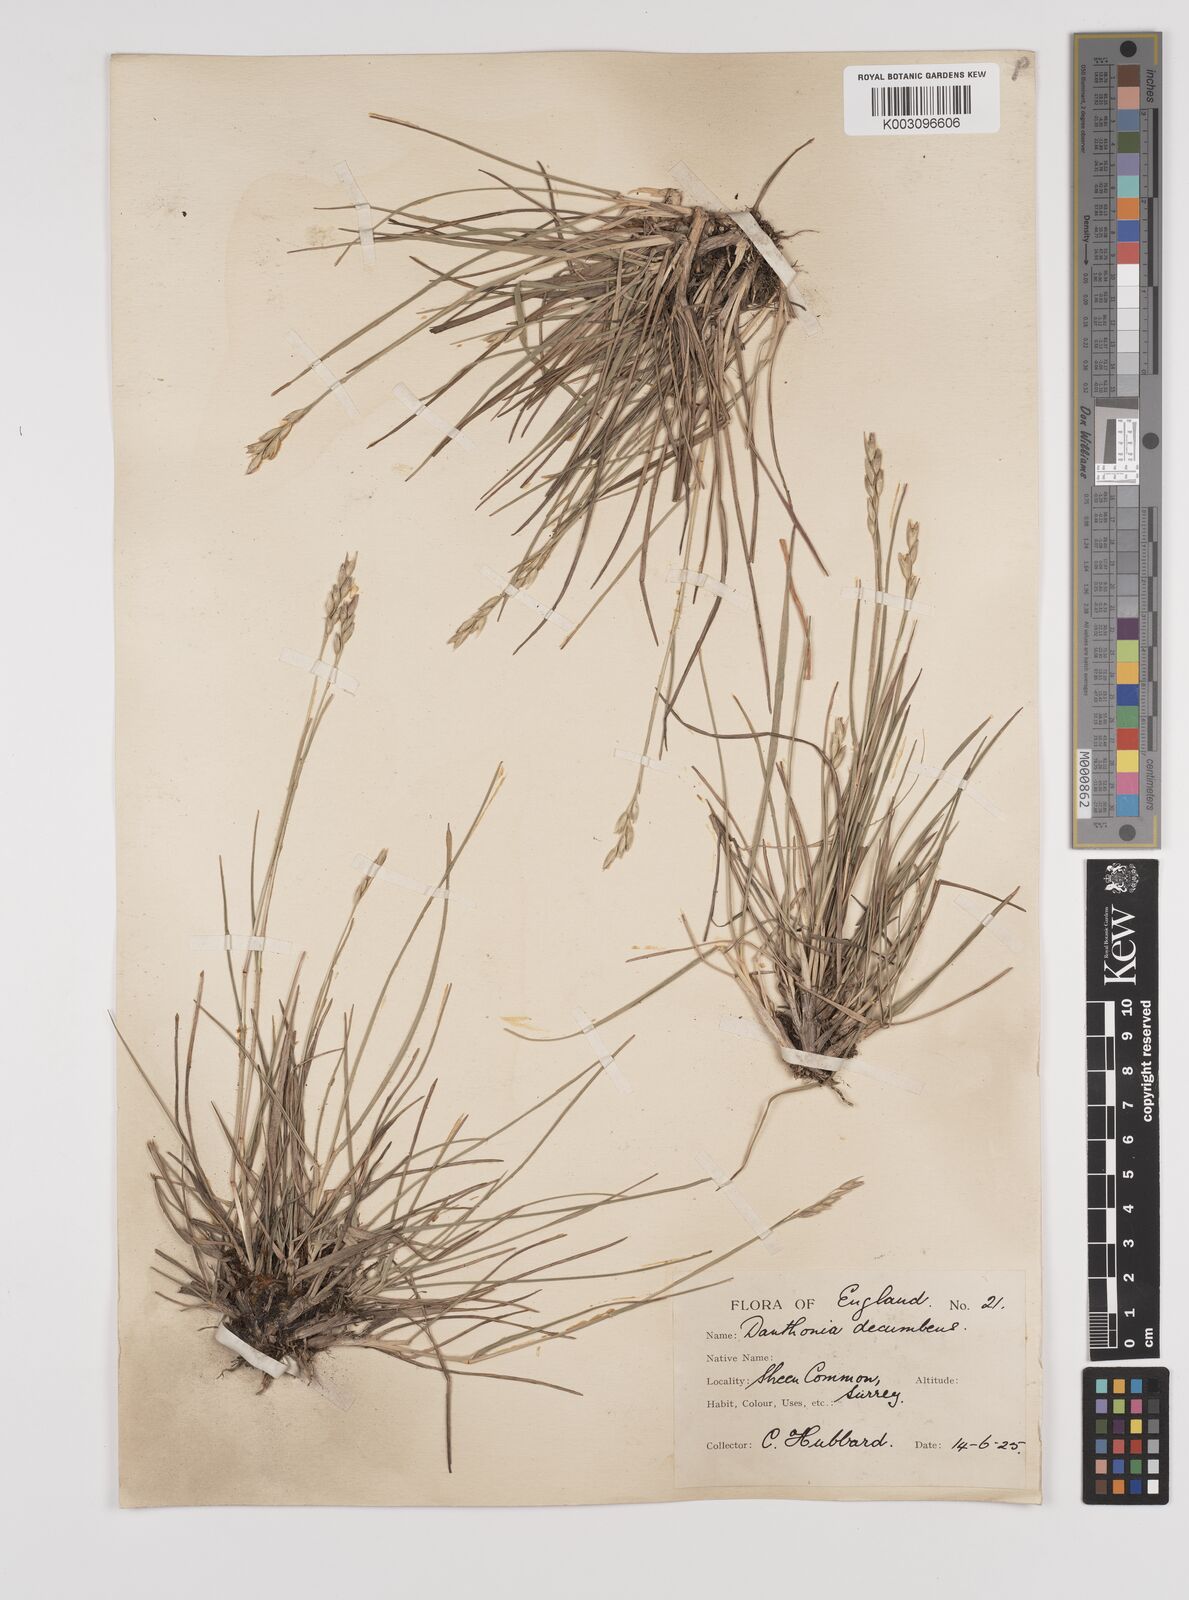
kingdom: Plantae
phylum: Tracheophyta
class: Liliopsida
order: Poales
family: Poaceae
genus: Danthonia
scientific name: Danthonia decumbens
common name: Common heathgrass
